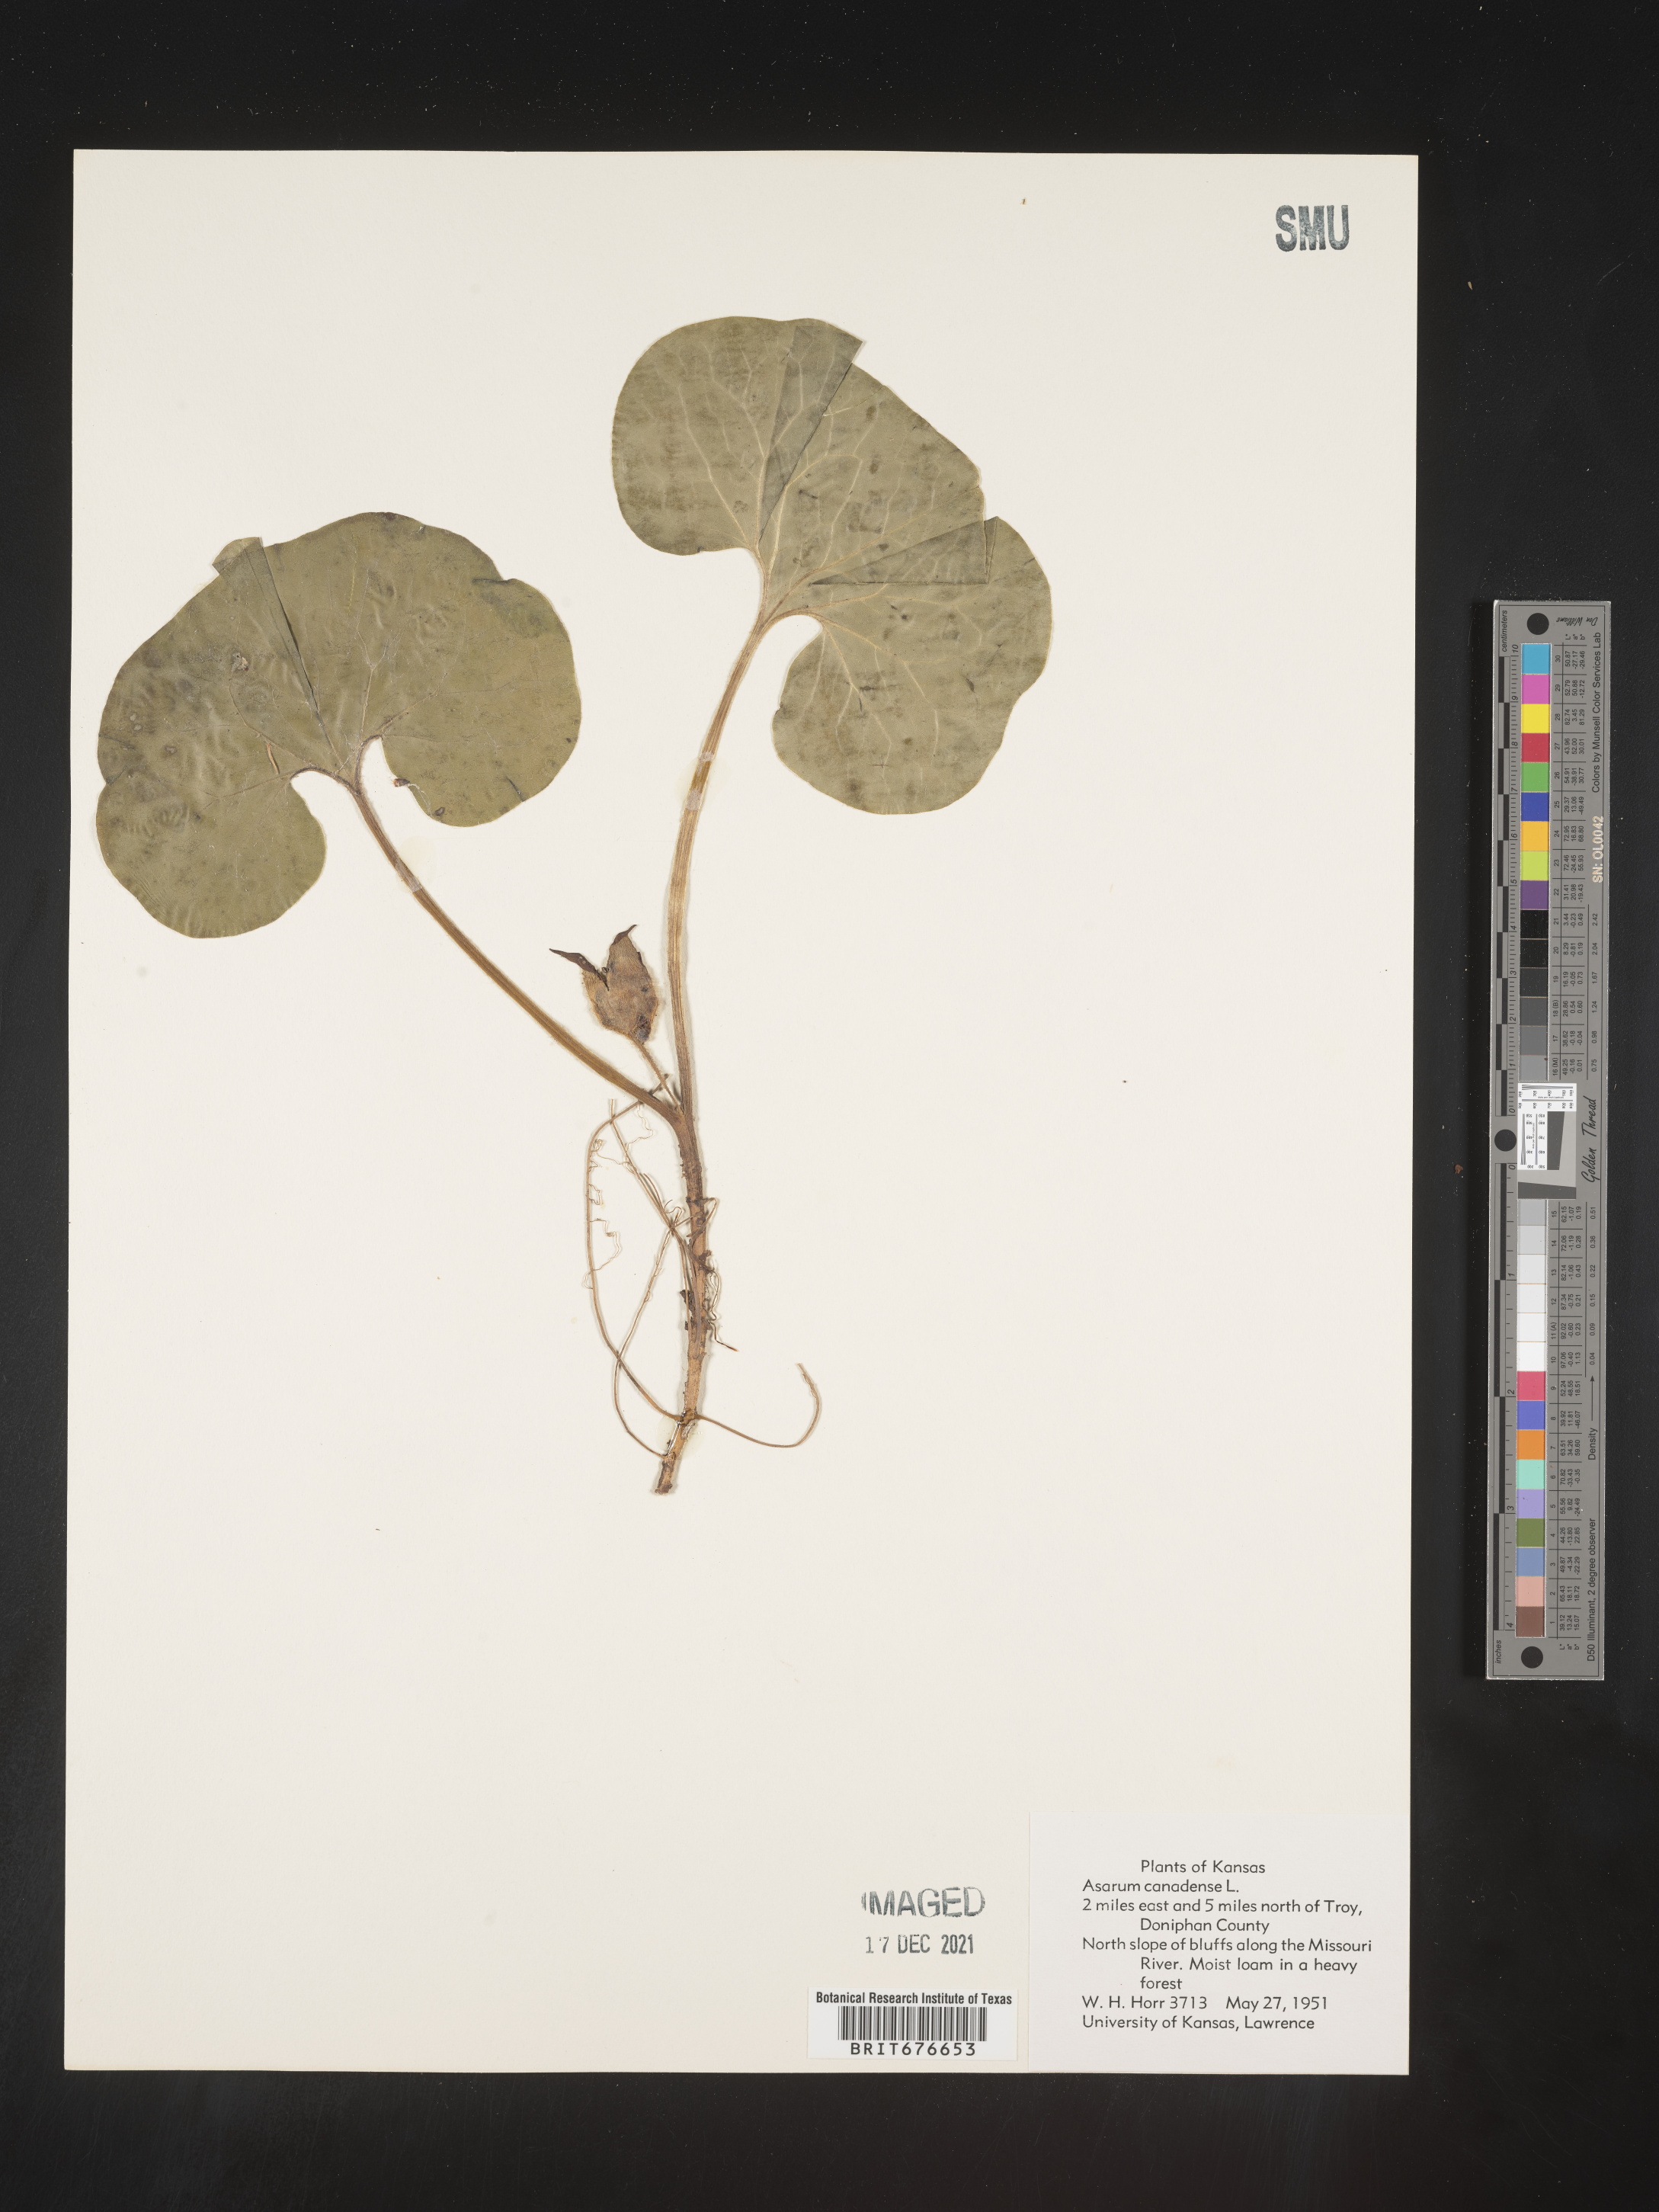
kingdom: Plantae
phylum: Tracheophyta
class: Magnoliopsida
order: Piperales
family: Aristolochiaceae
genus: Asarum
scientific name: Asarum canadense
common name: Wild ginger
